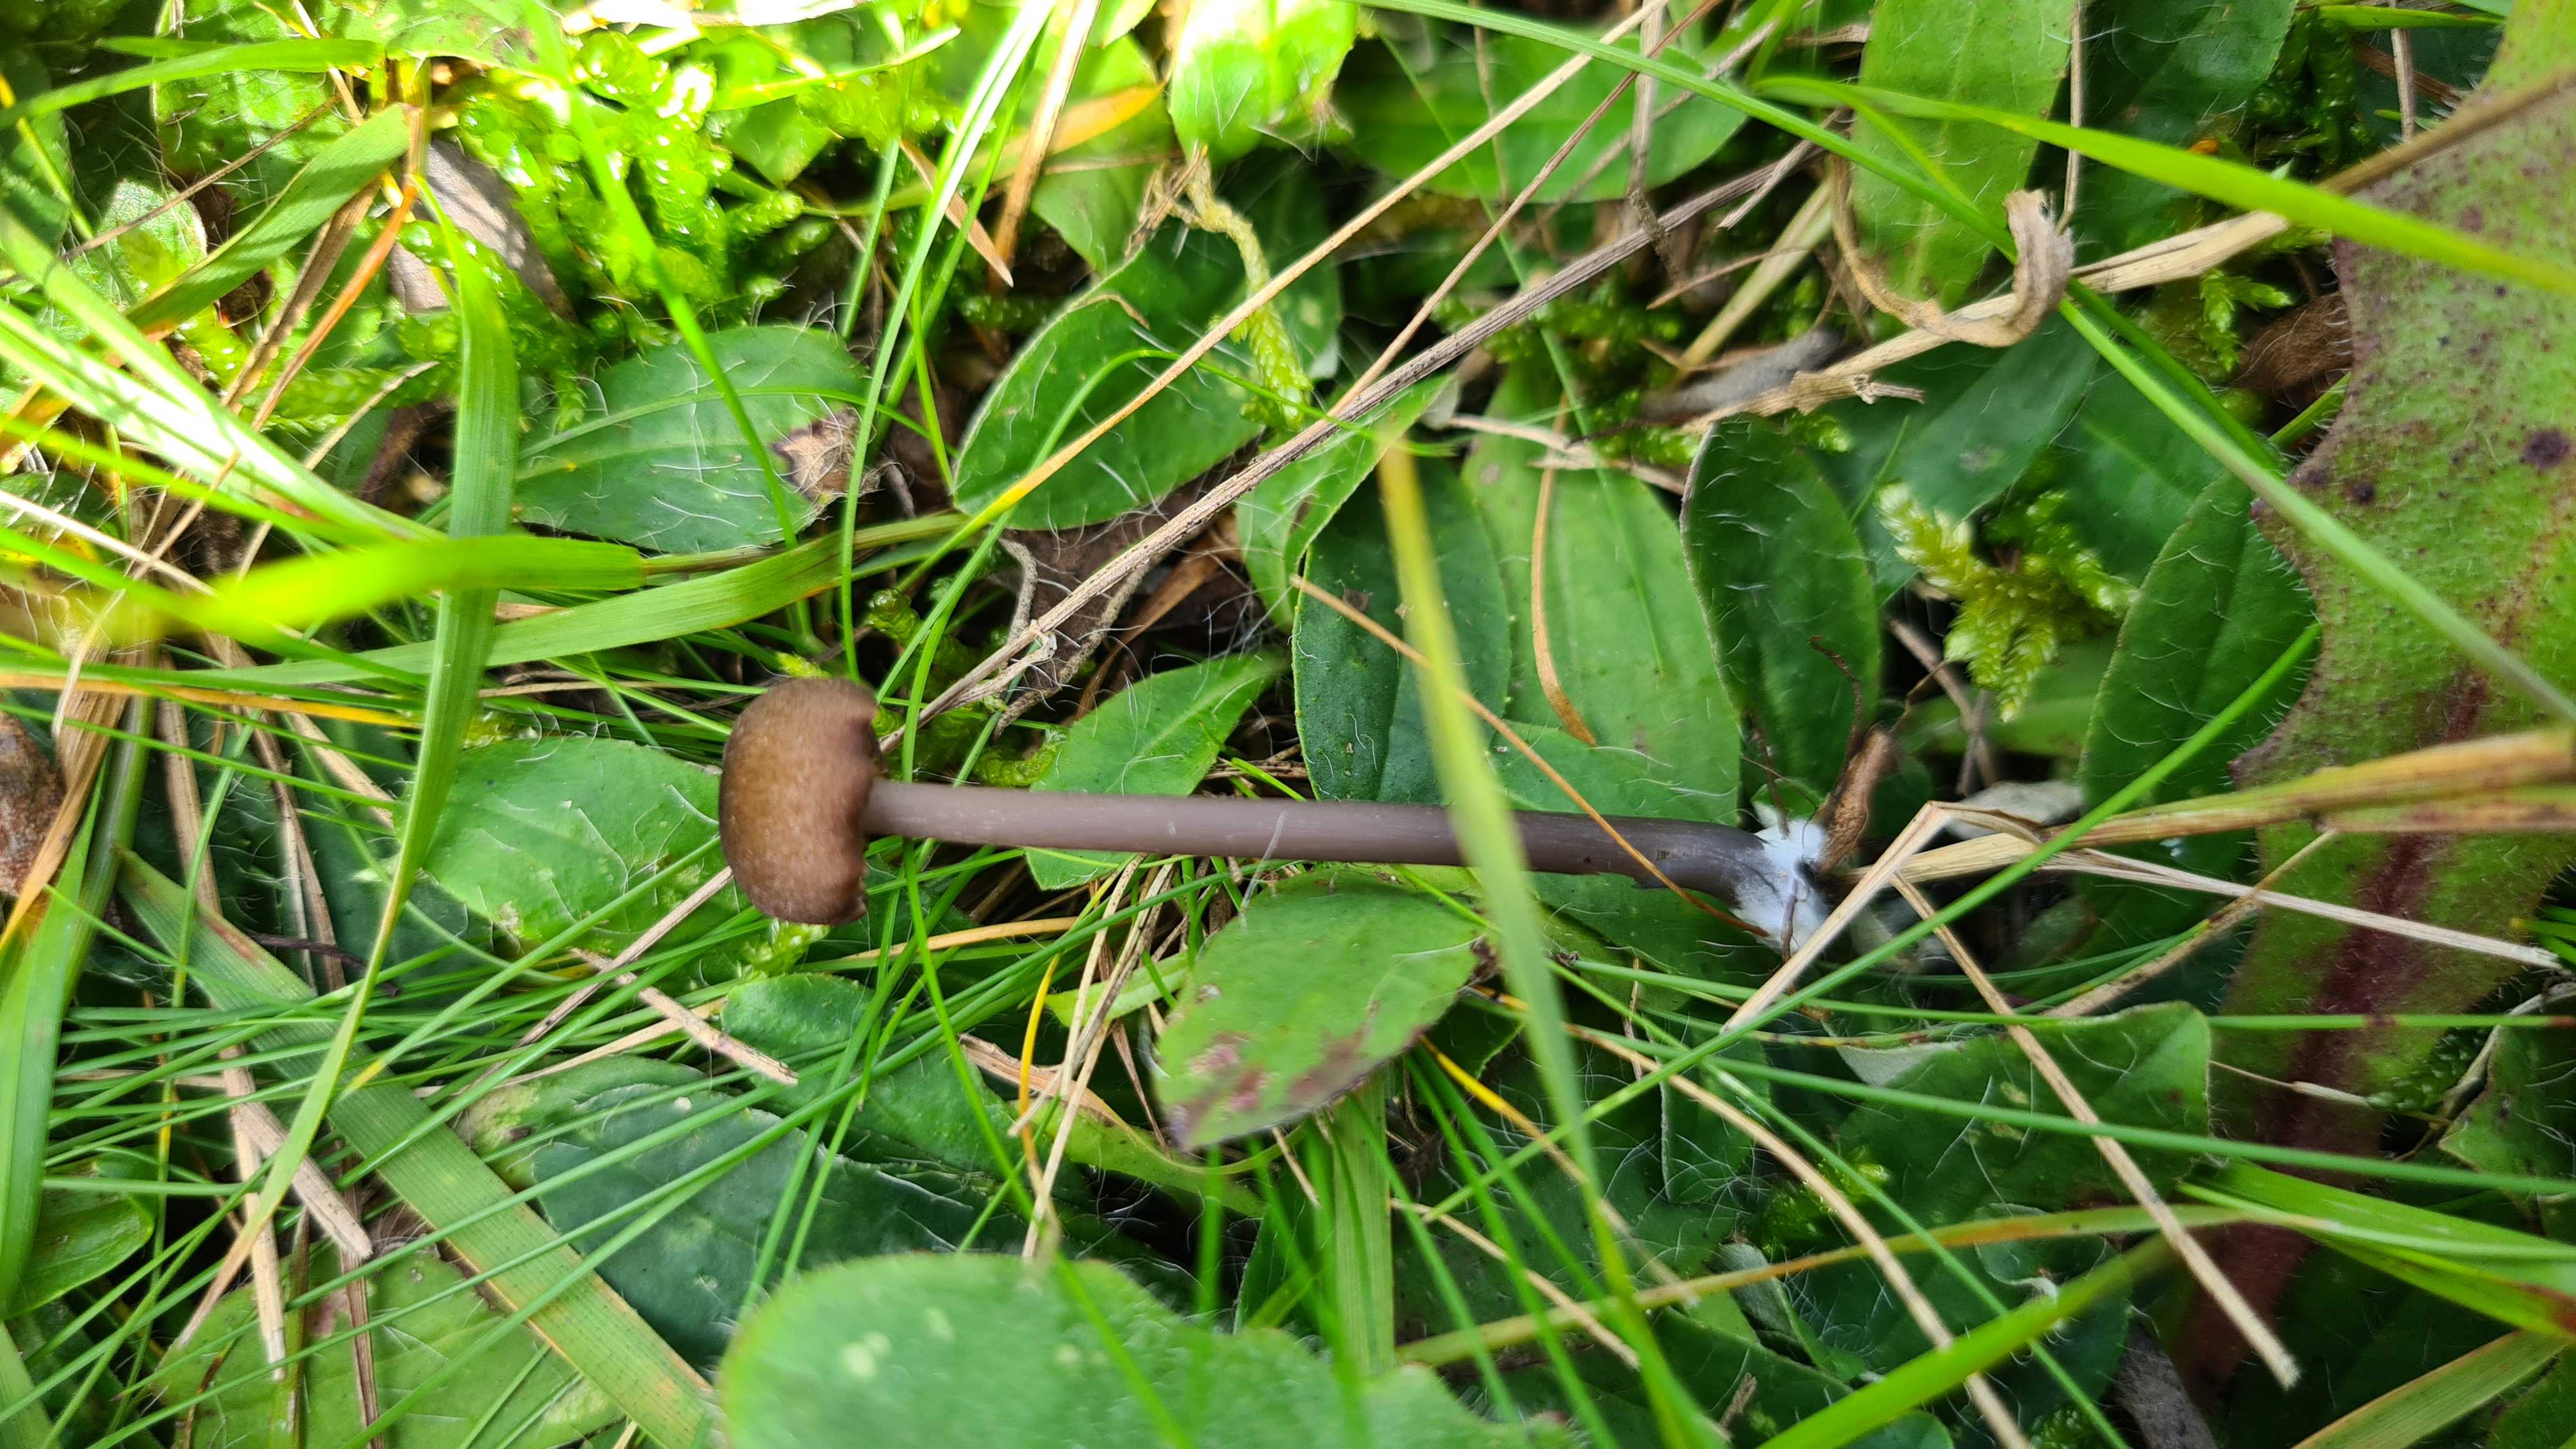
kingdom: Fungi
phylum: Basidiomycota
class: Agaricomycetes
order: Agaricales
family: Entolomataceae
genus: Entoloma
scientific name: Entoloma
